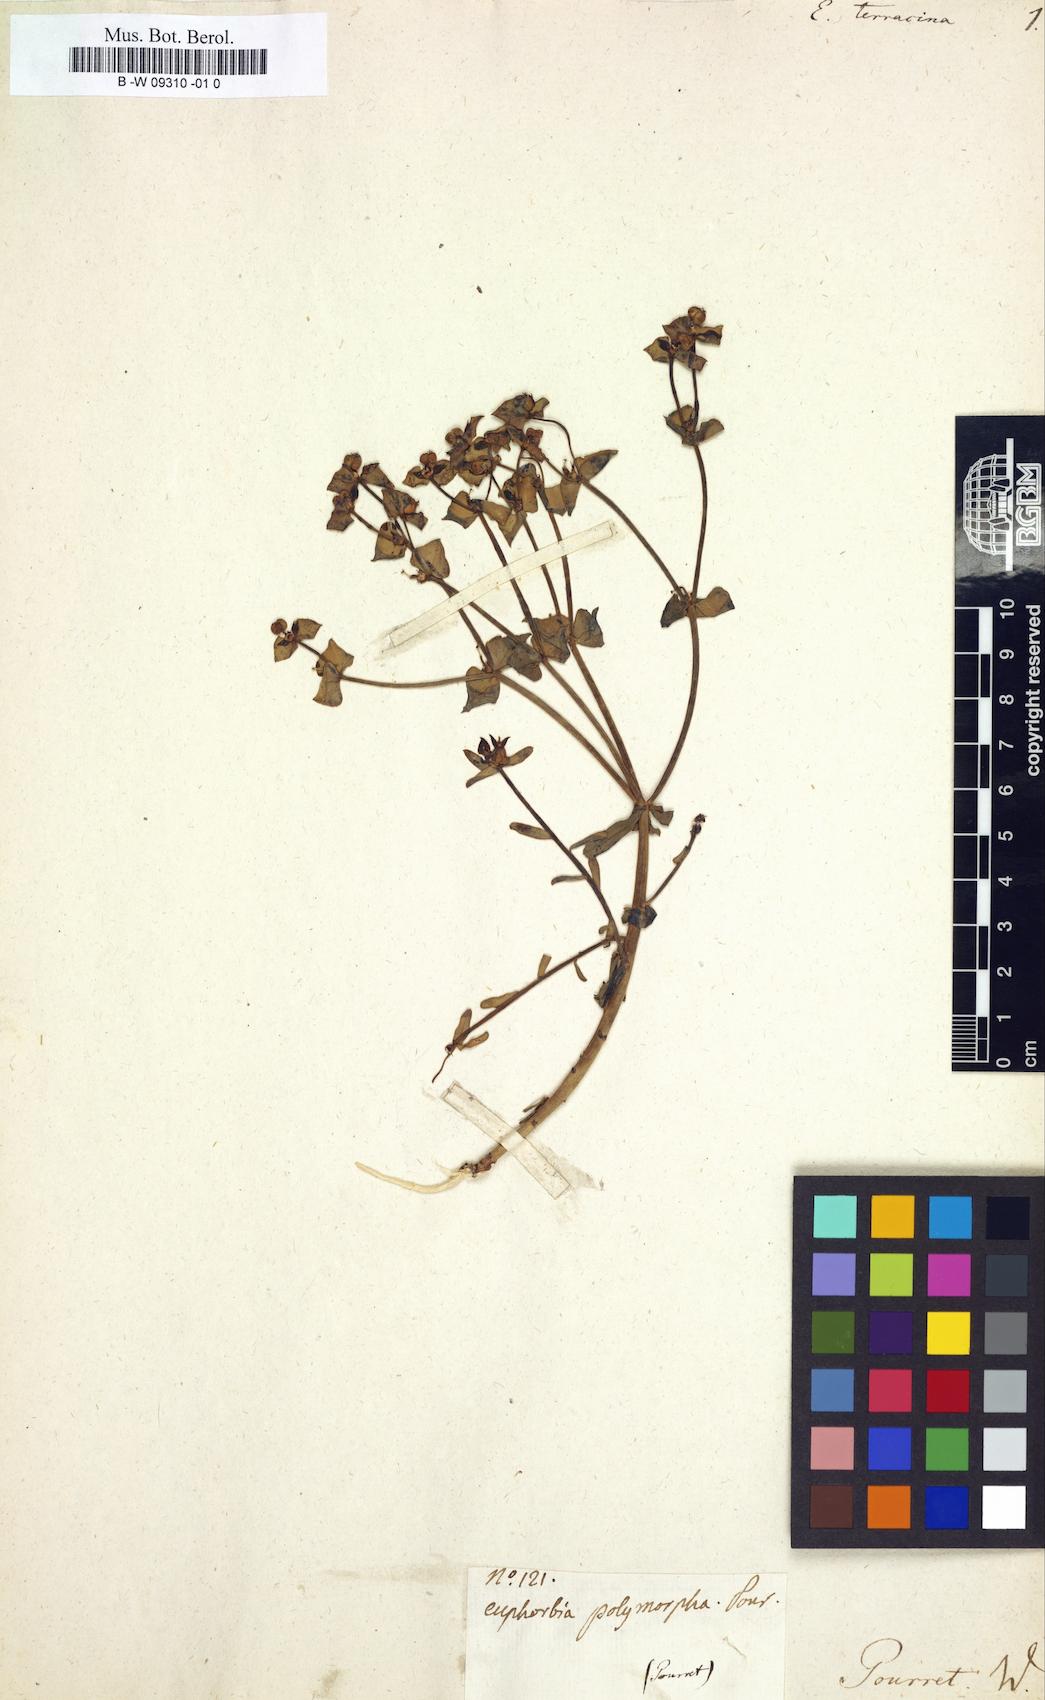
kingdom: Plantae
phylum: Tracheophyta
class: Magnoliopsida
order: Malpighiales
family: Euphorbiaceae
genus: Euphorbia
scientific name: Euphorbia terracina
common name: Geraldton carnation weed
